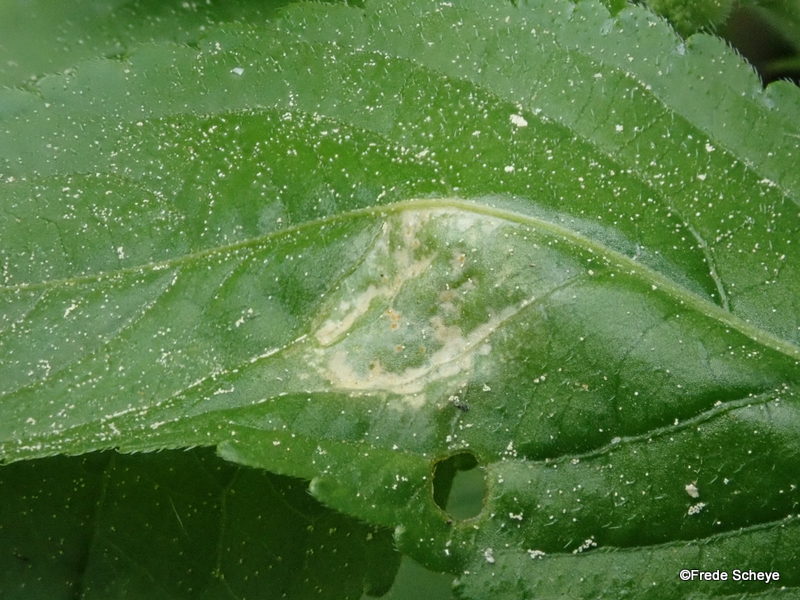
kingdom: Fungi
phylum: Basidiomycota
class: Pucciniomycetes
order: Pucciniales
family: Melampsoraceae
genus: Melampsora
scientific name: Melampsora populnea
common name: poppel-skorperust
